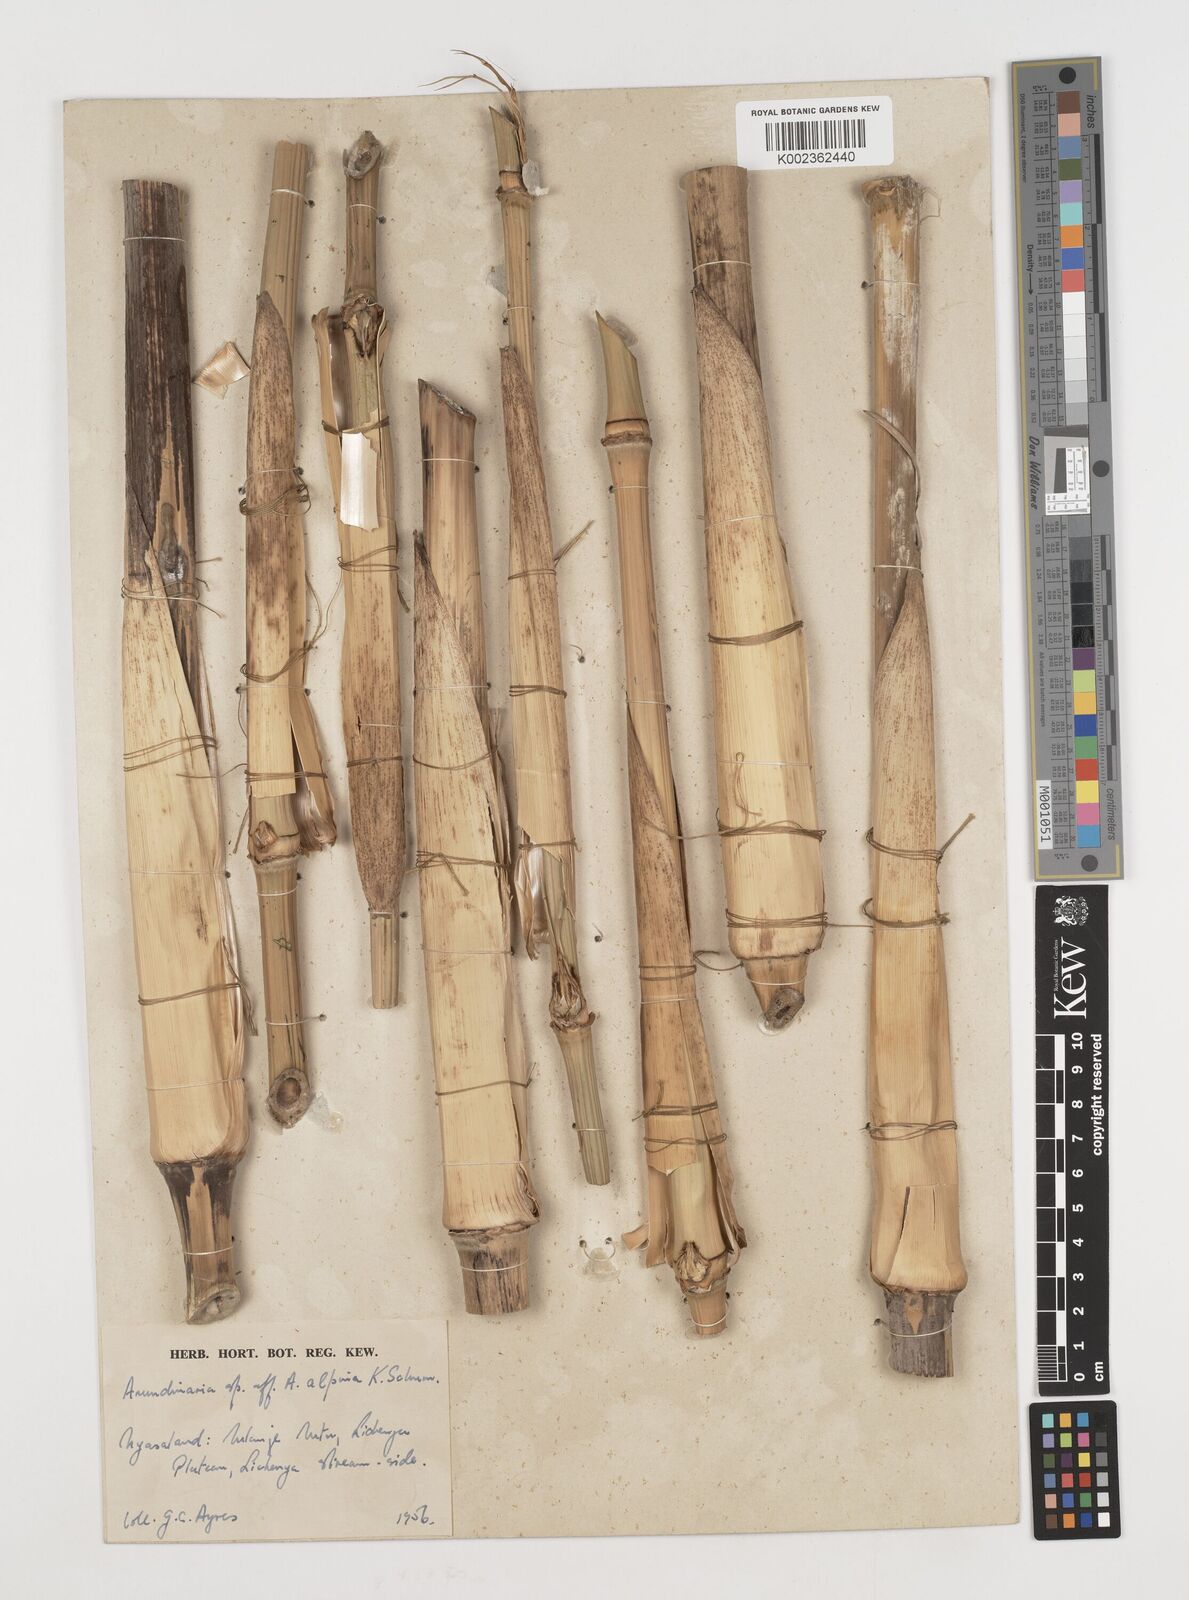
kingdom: Plantae
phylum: Tracheophyta
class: Liliopsida
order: Poales
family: Poaceae
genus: Oldeania
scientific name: Oldeania
